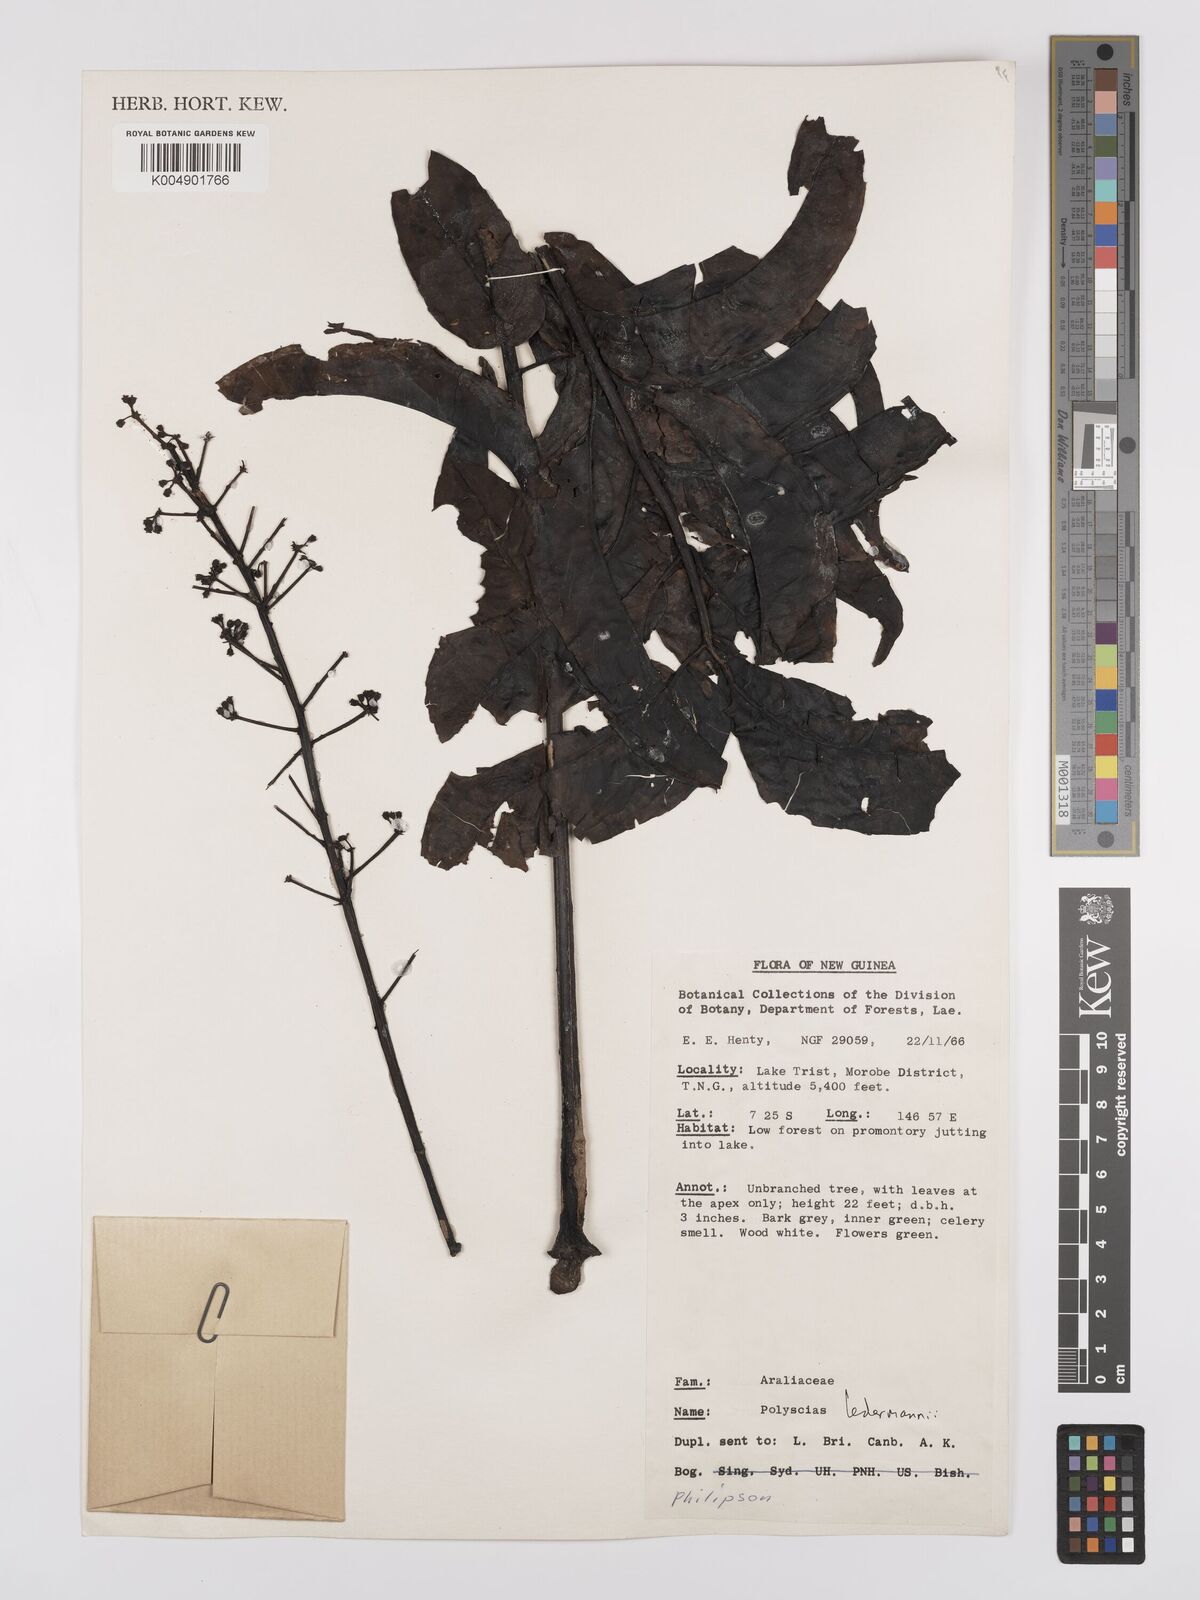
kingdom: Plantae
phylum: Tracheophyta
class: Magnoliopsida
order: Apiales
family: Araliaceae
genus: Polyscias
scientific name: Polyscias ledermannii
